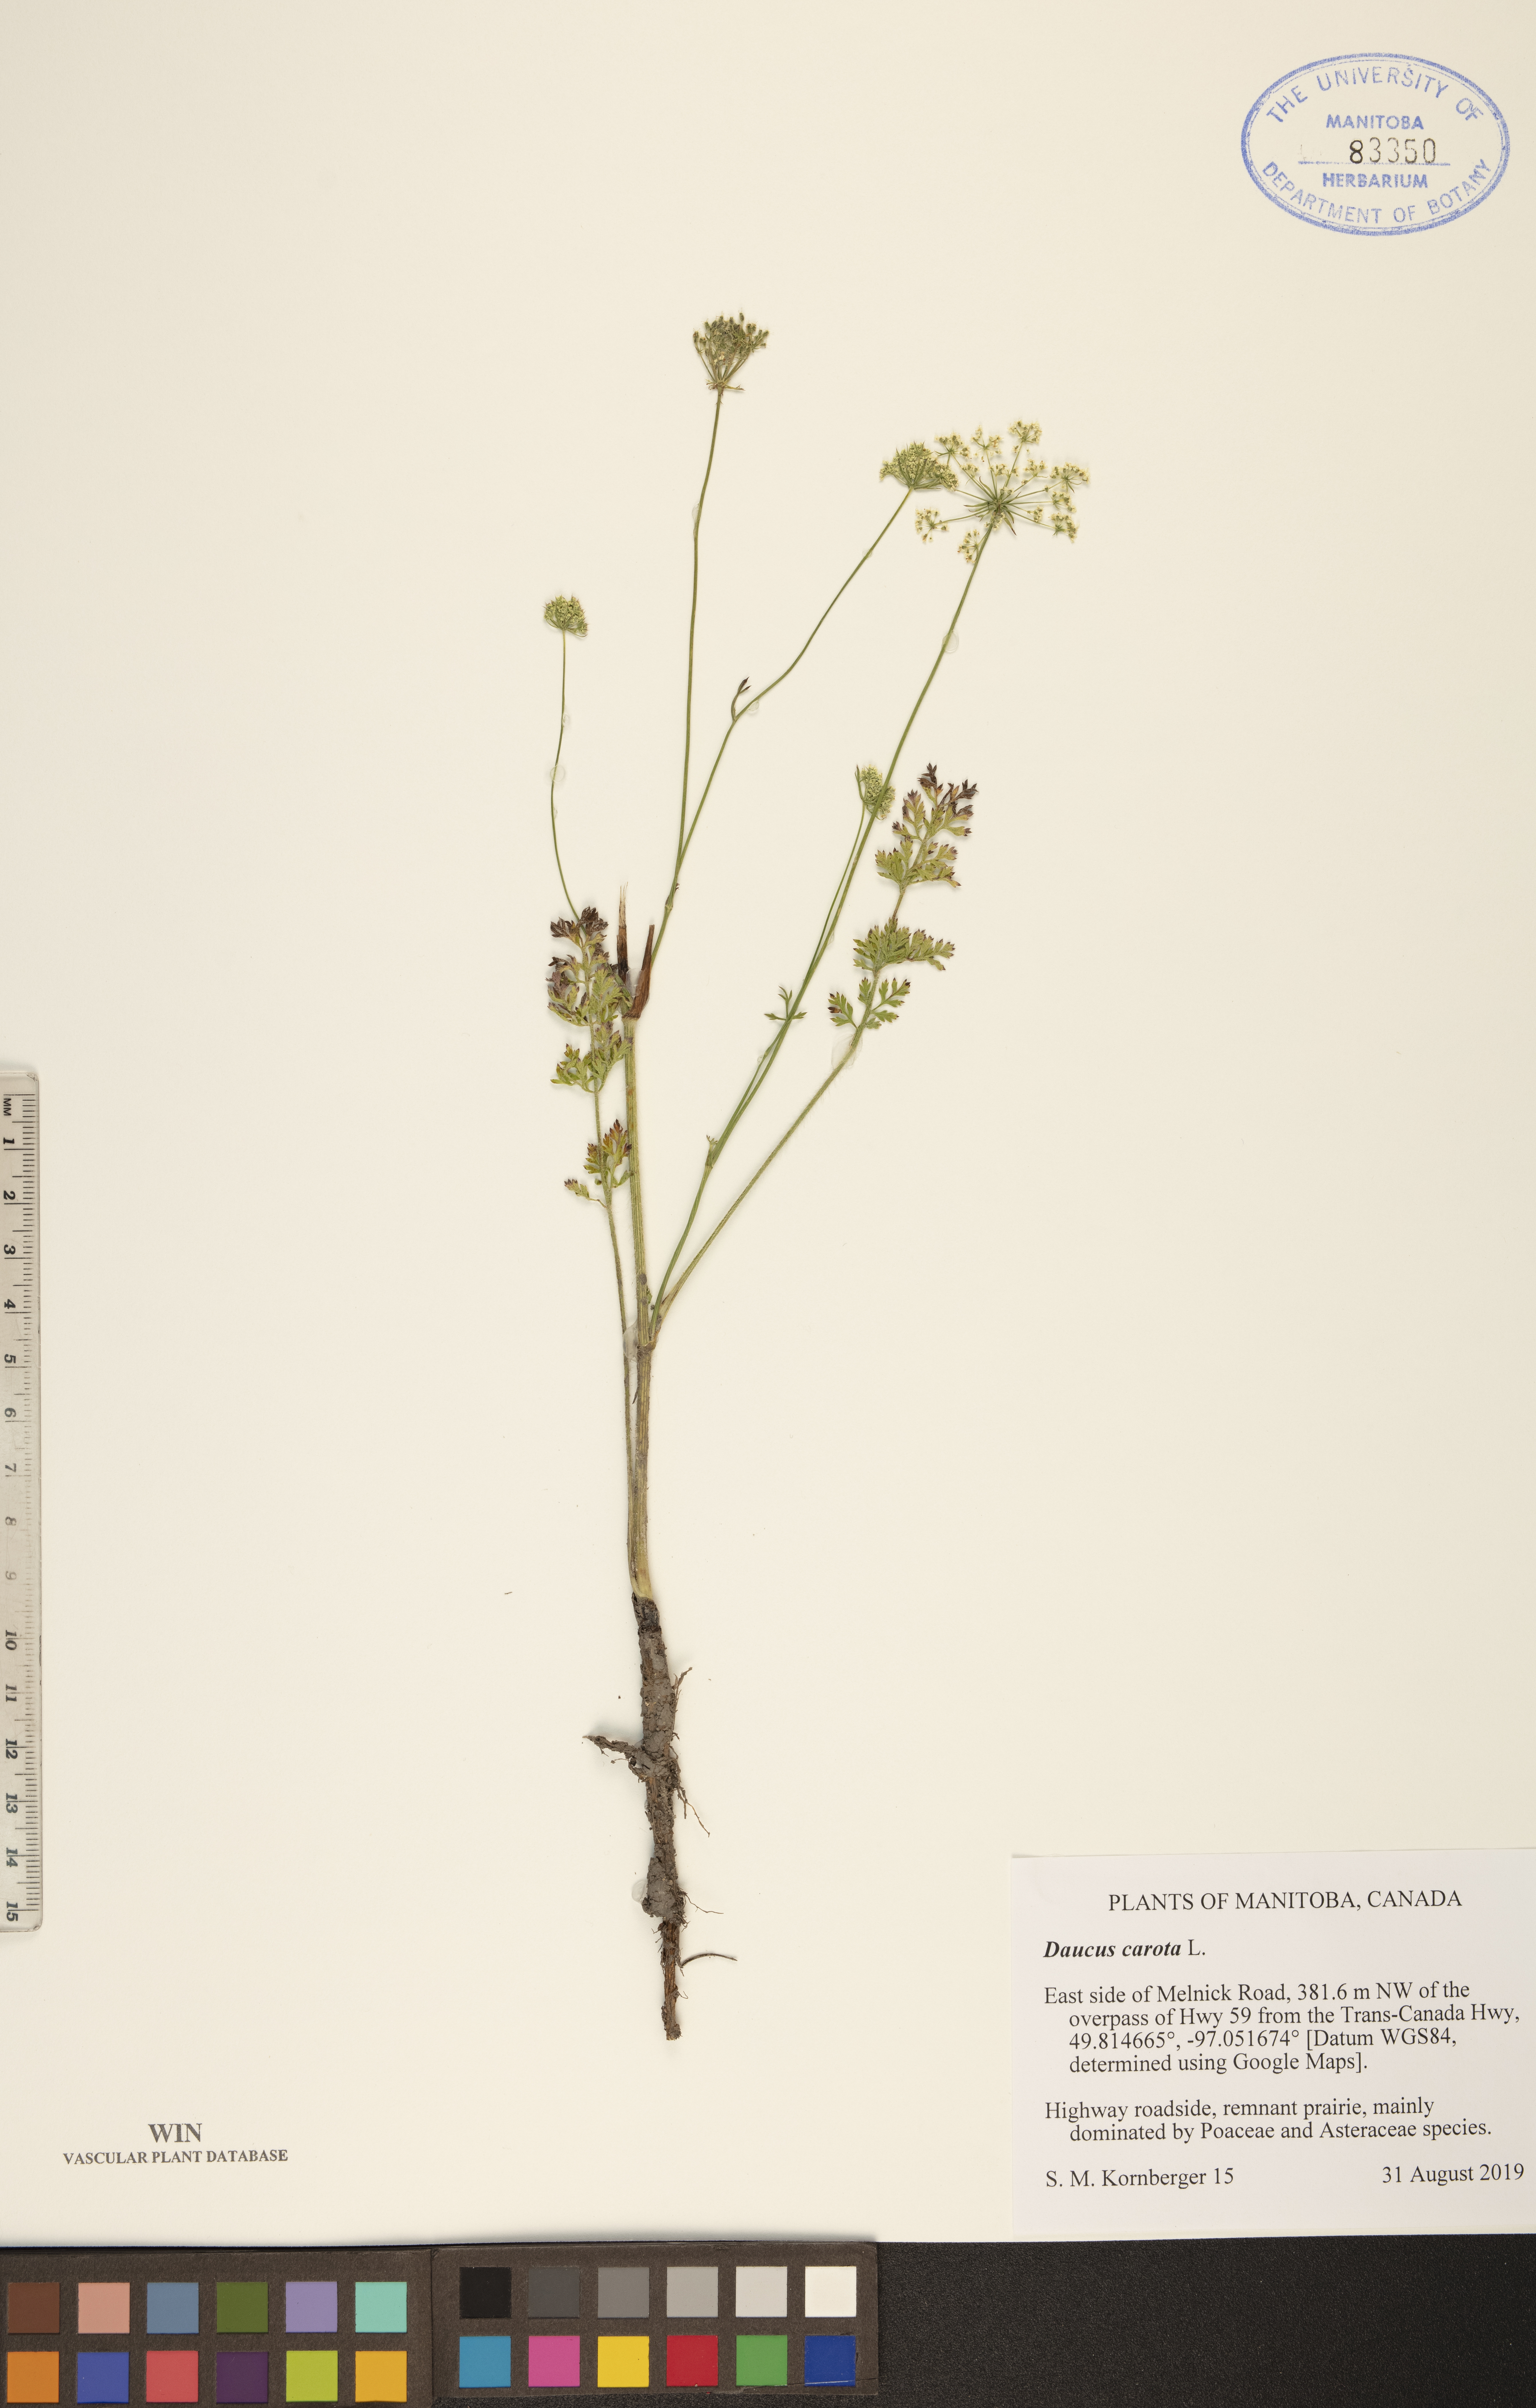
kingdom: Plantae
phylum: Tracheophyta
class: Magnoliopsida
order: Apiales
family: Apiaceae
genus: Daucus
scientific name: Daucus carota
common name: Wild carrot
